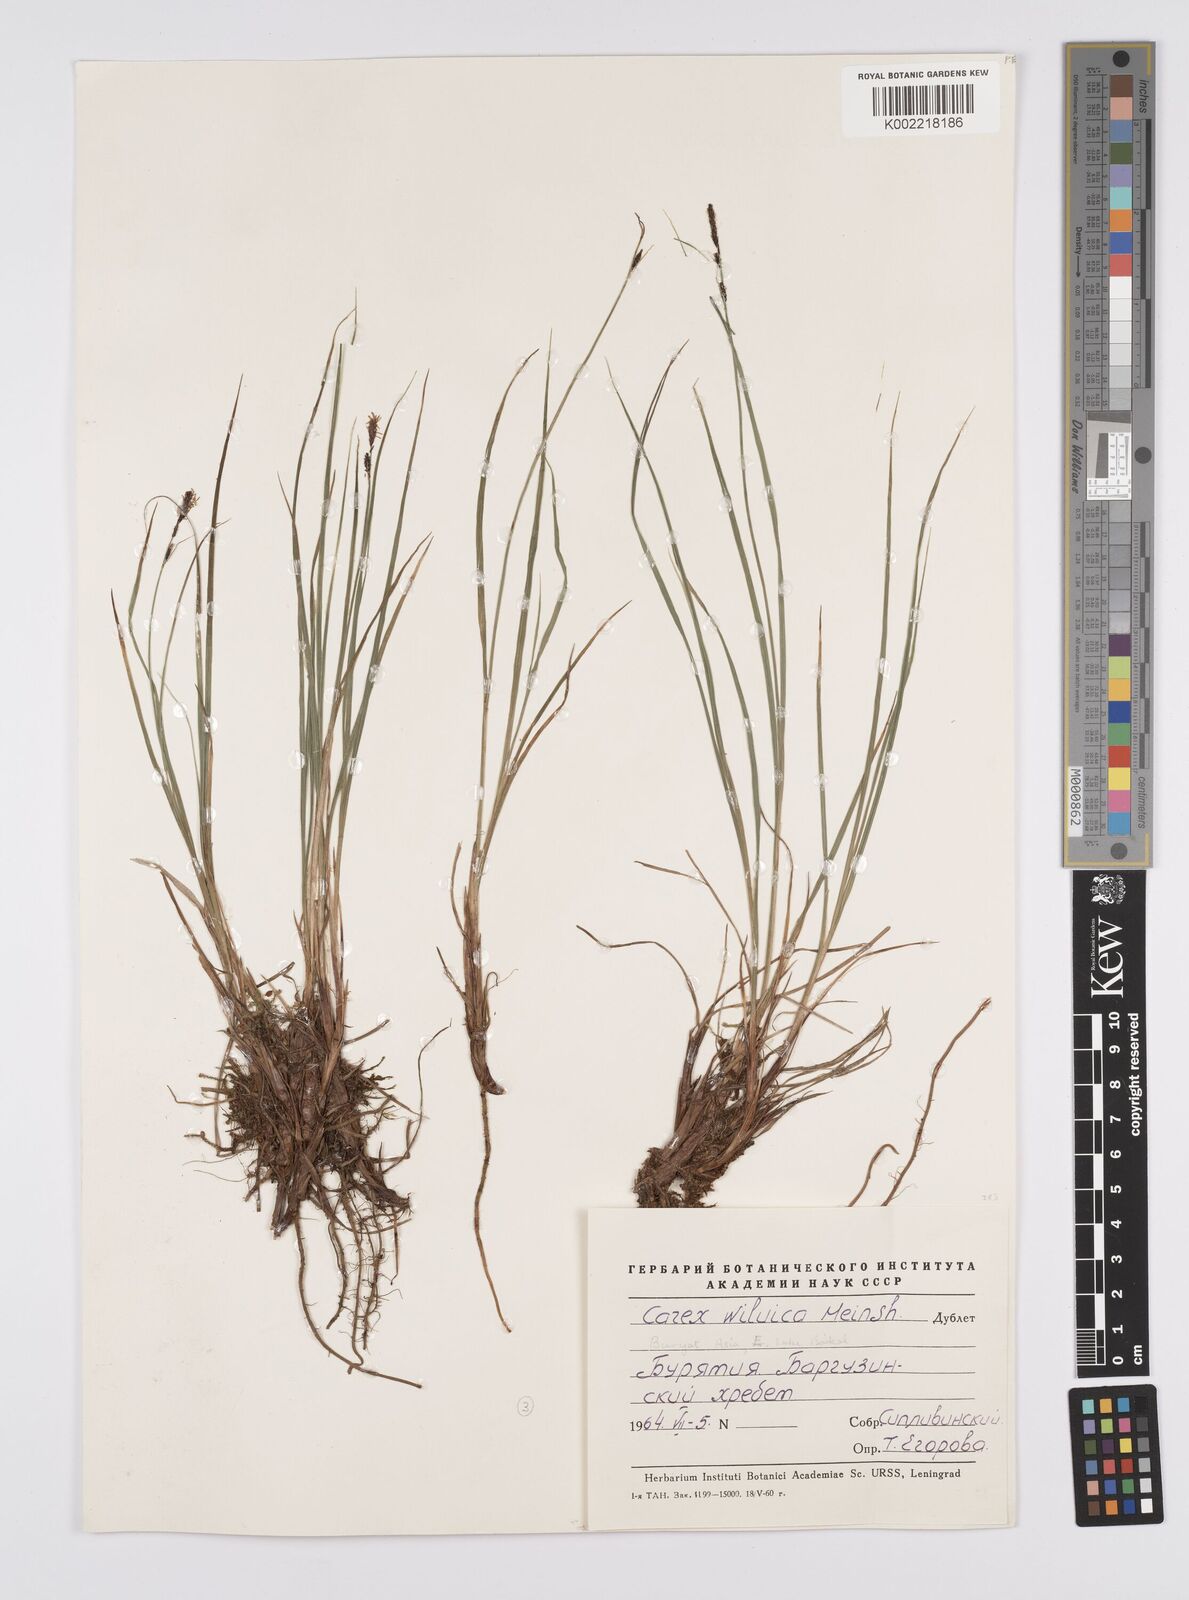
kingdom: Plantae
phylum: Tracheophyta
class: Liliopsida
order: Poales
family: Cyperaceae
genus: Carex
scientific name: Carex nigra
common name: Common sedge
